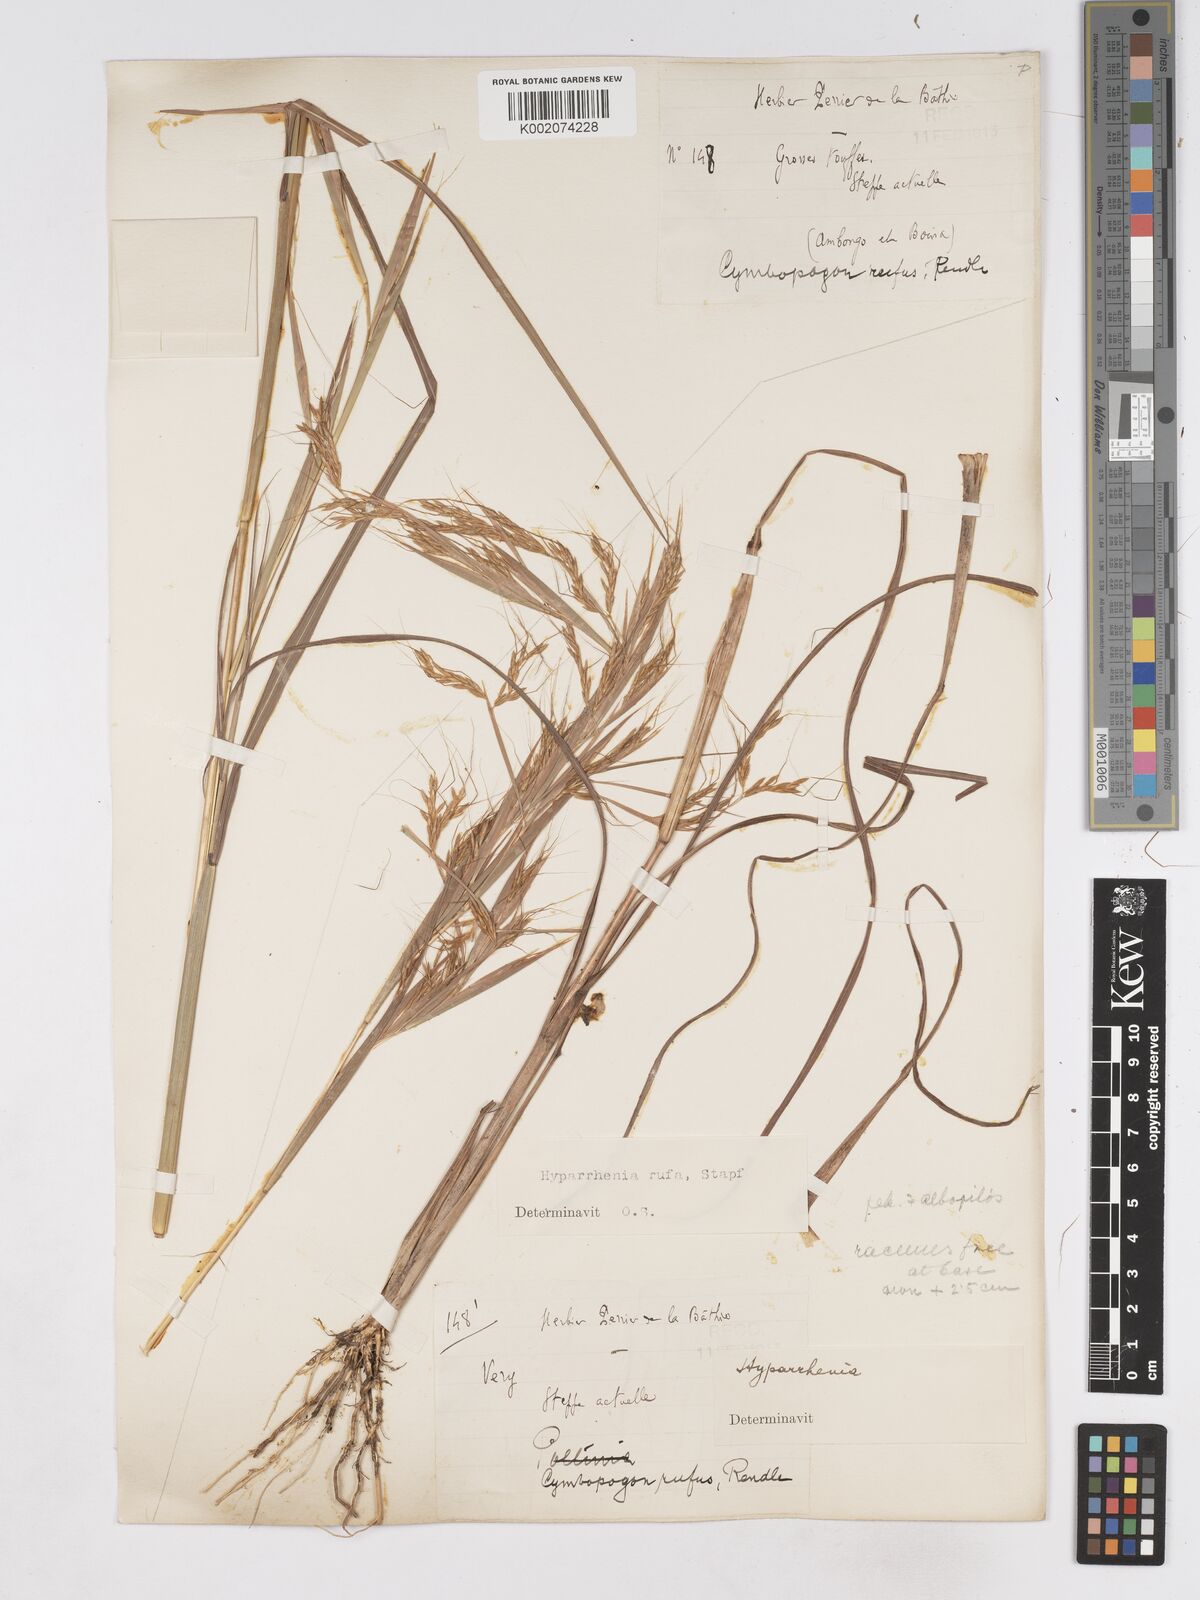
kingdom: Plantae
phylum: Tracheophyta
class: Liliopsida
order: Poales
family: Poaceae
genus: Hyparrhenia
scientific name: Hyparrhenia rufa
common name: Jaraguagrass
